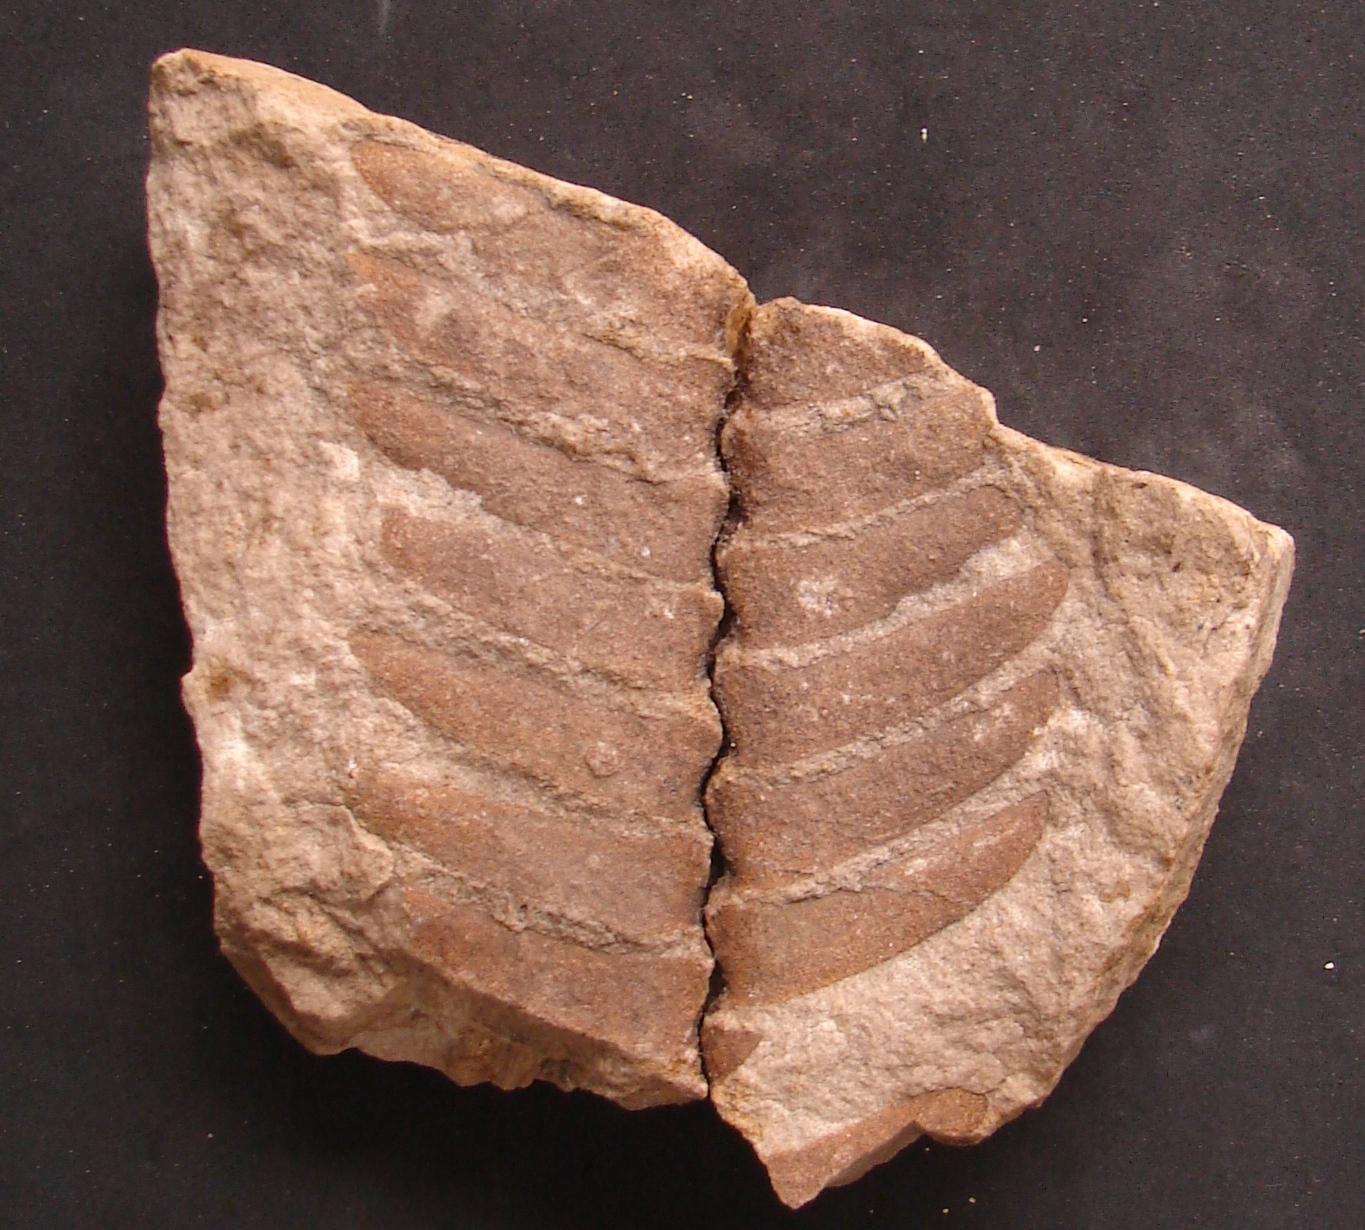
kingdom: Plantae
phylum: Tracheophyta
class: Cycadopsida
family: Williamsoniaceae
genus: Otozamites
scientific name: Otozamites
